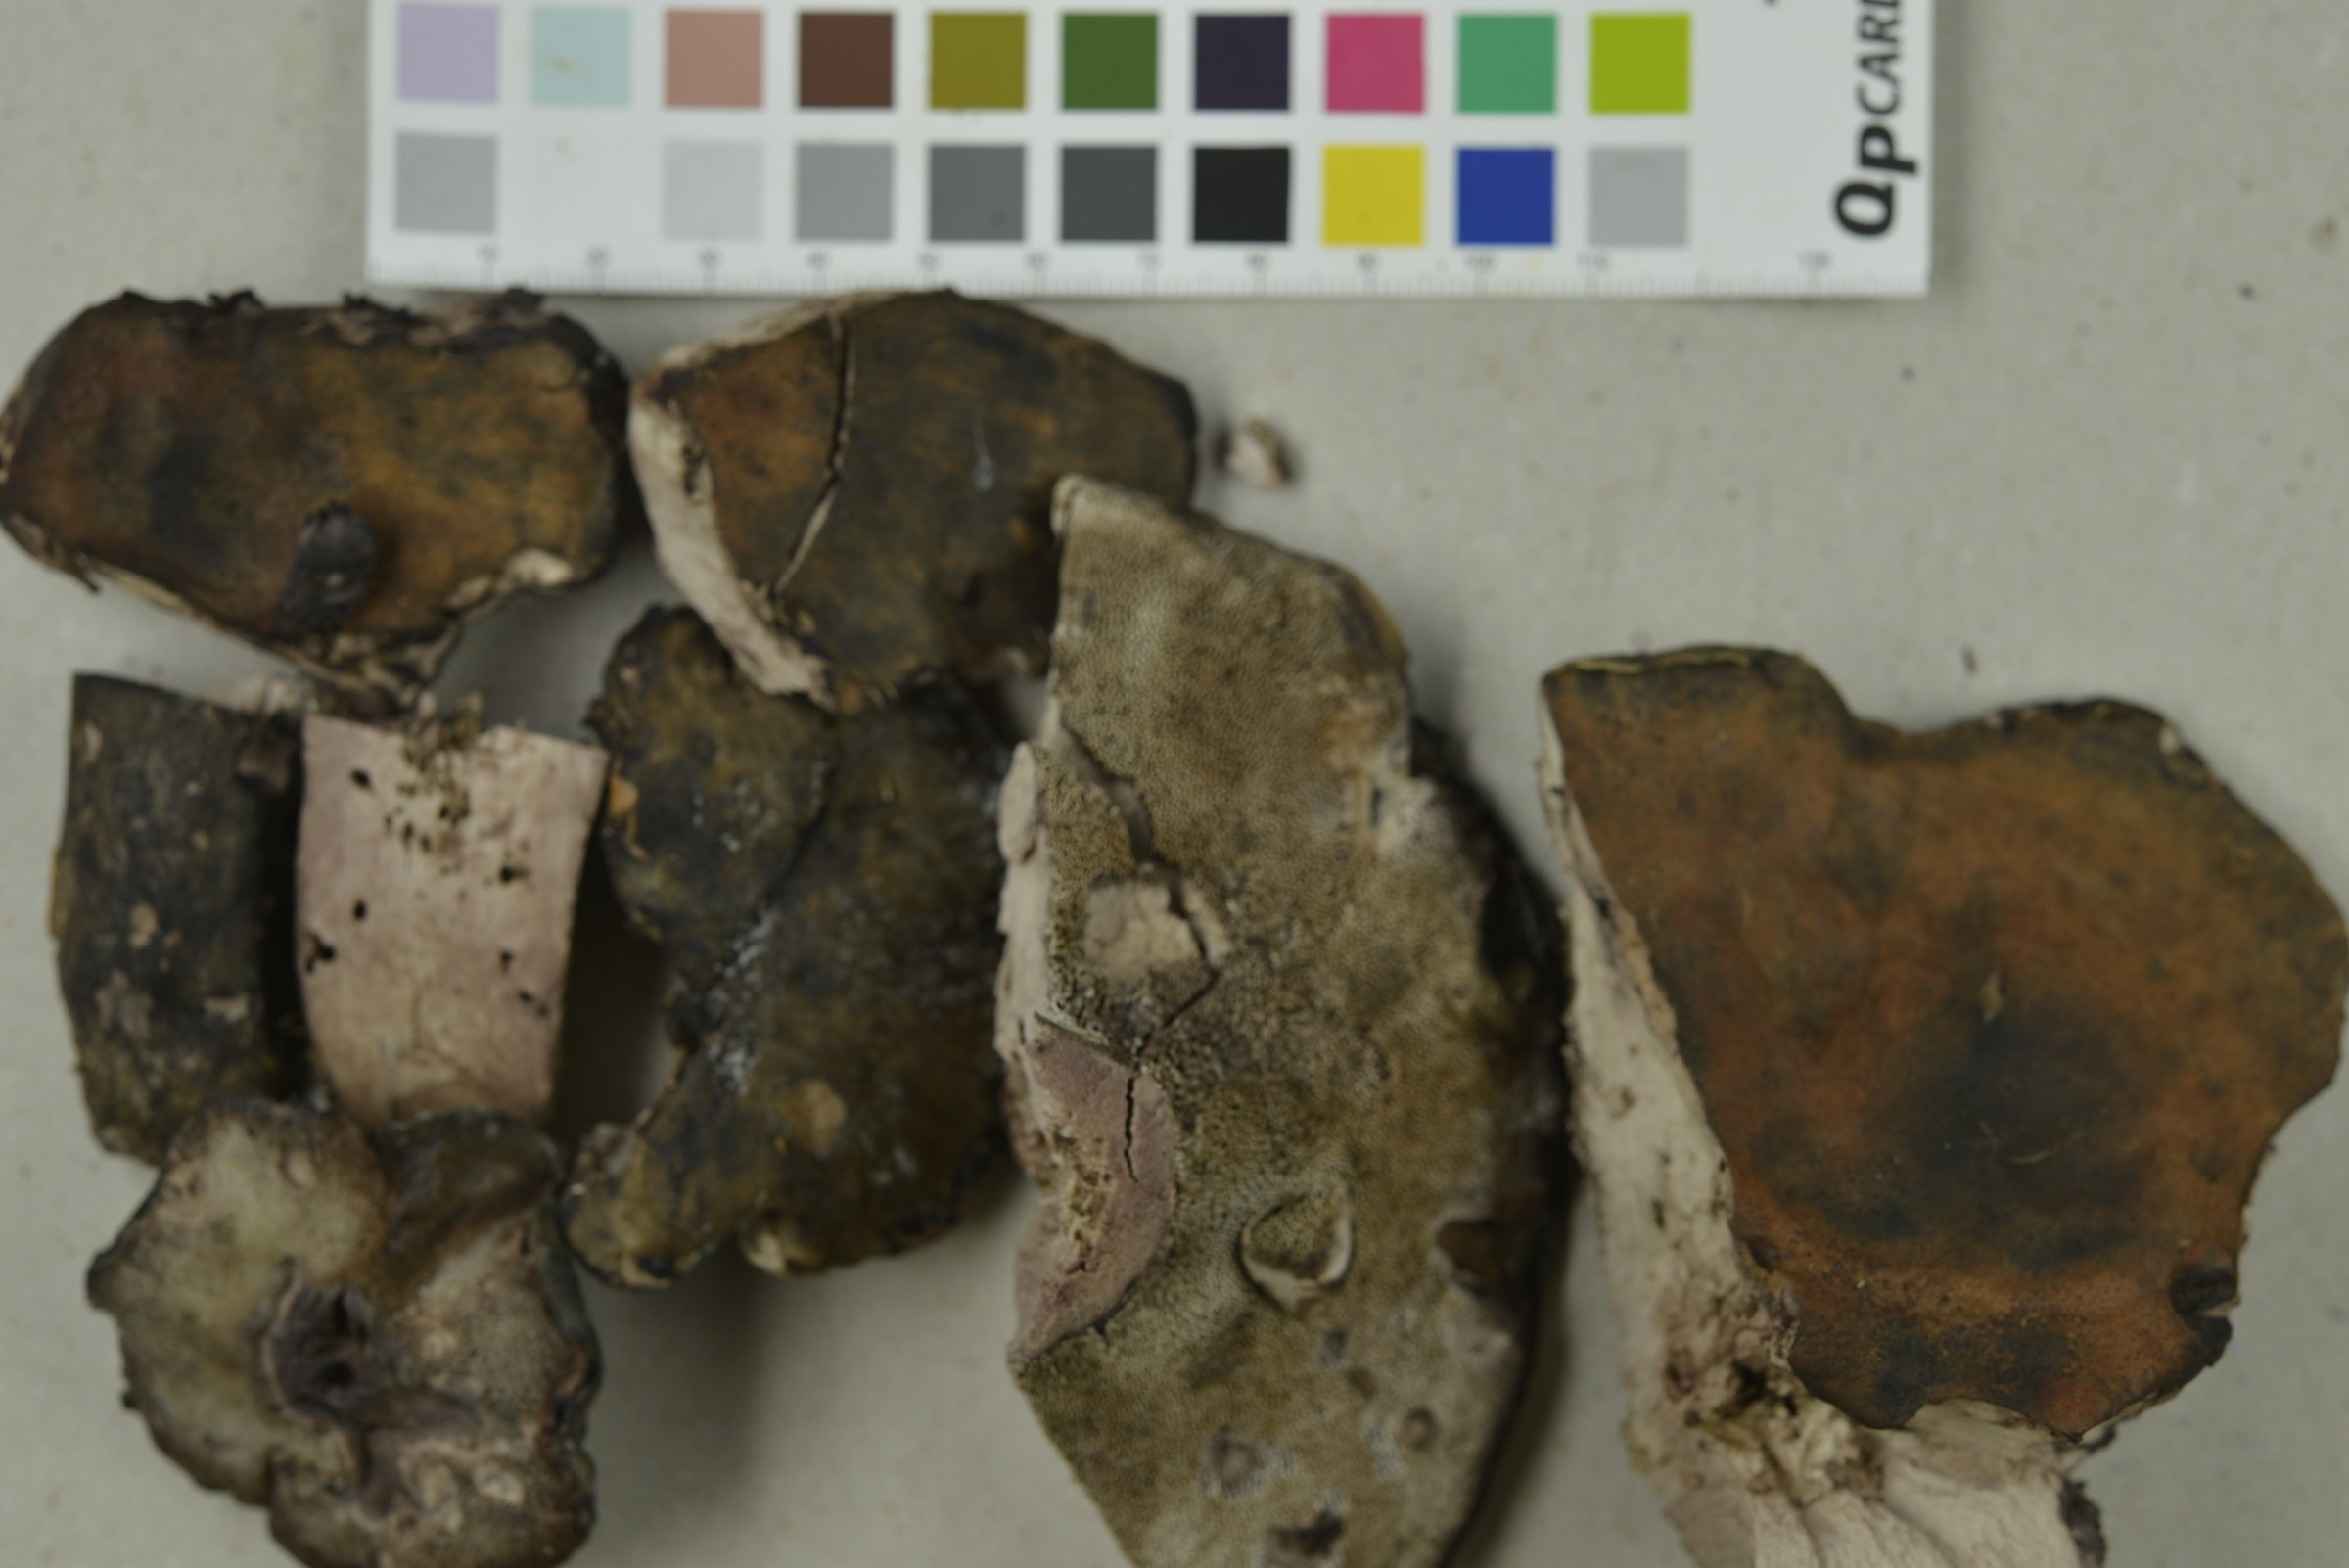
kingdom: Fungi
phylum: Basidiomycota
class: Agaricomycetes
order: Thelephorales
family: Bankeraceae
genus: Boletopsis
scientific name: Boletopsis leucomelaena
